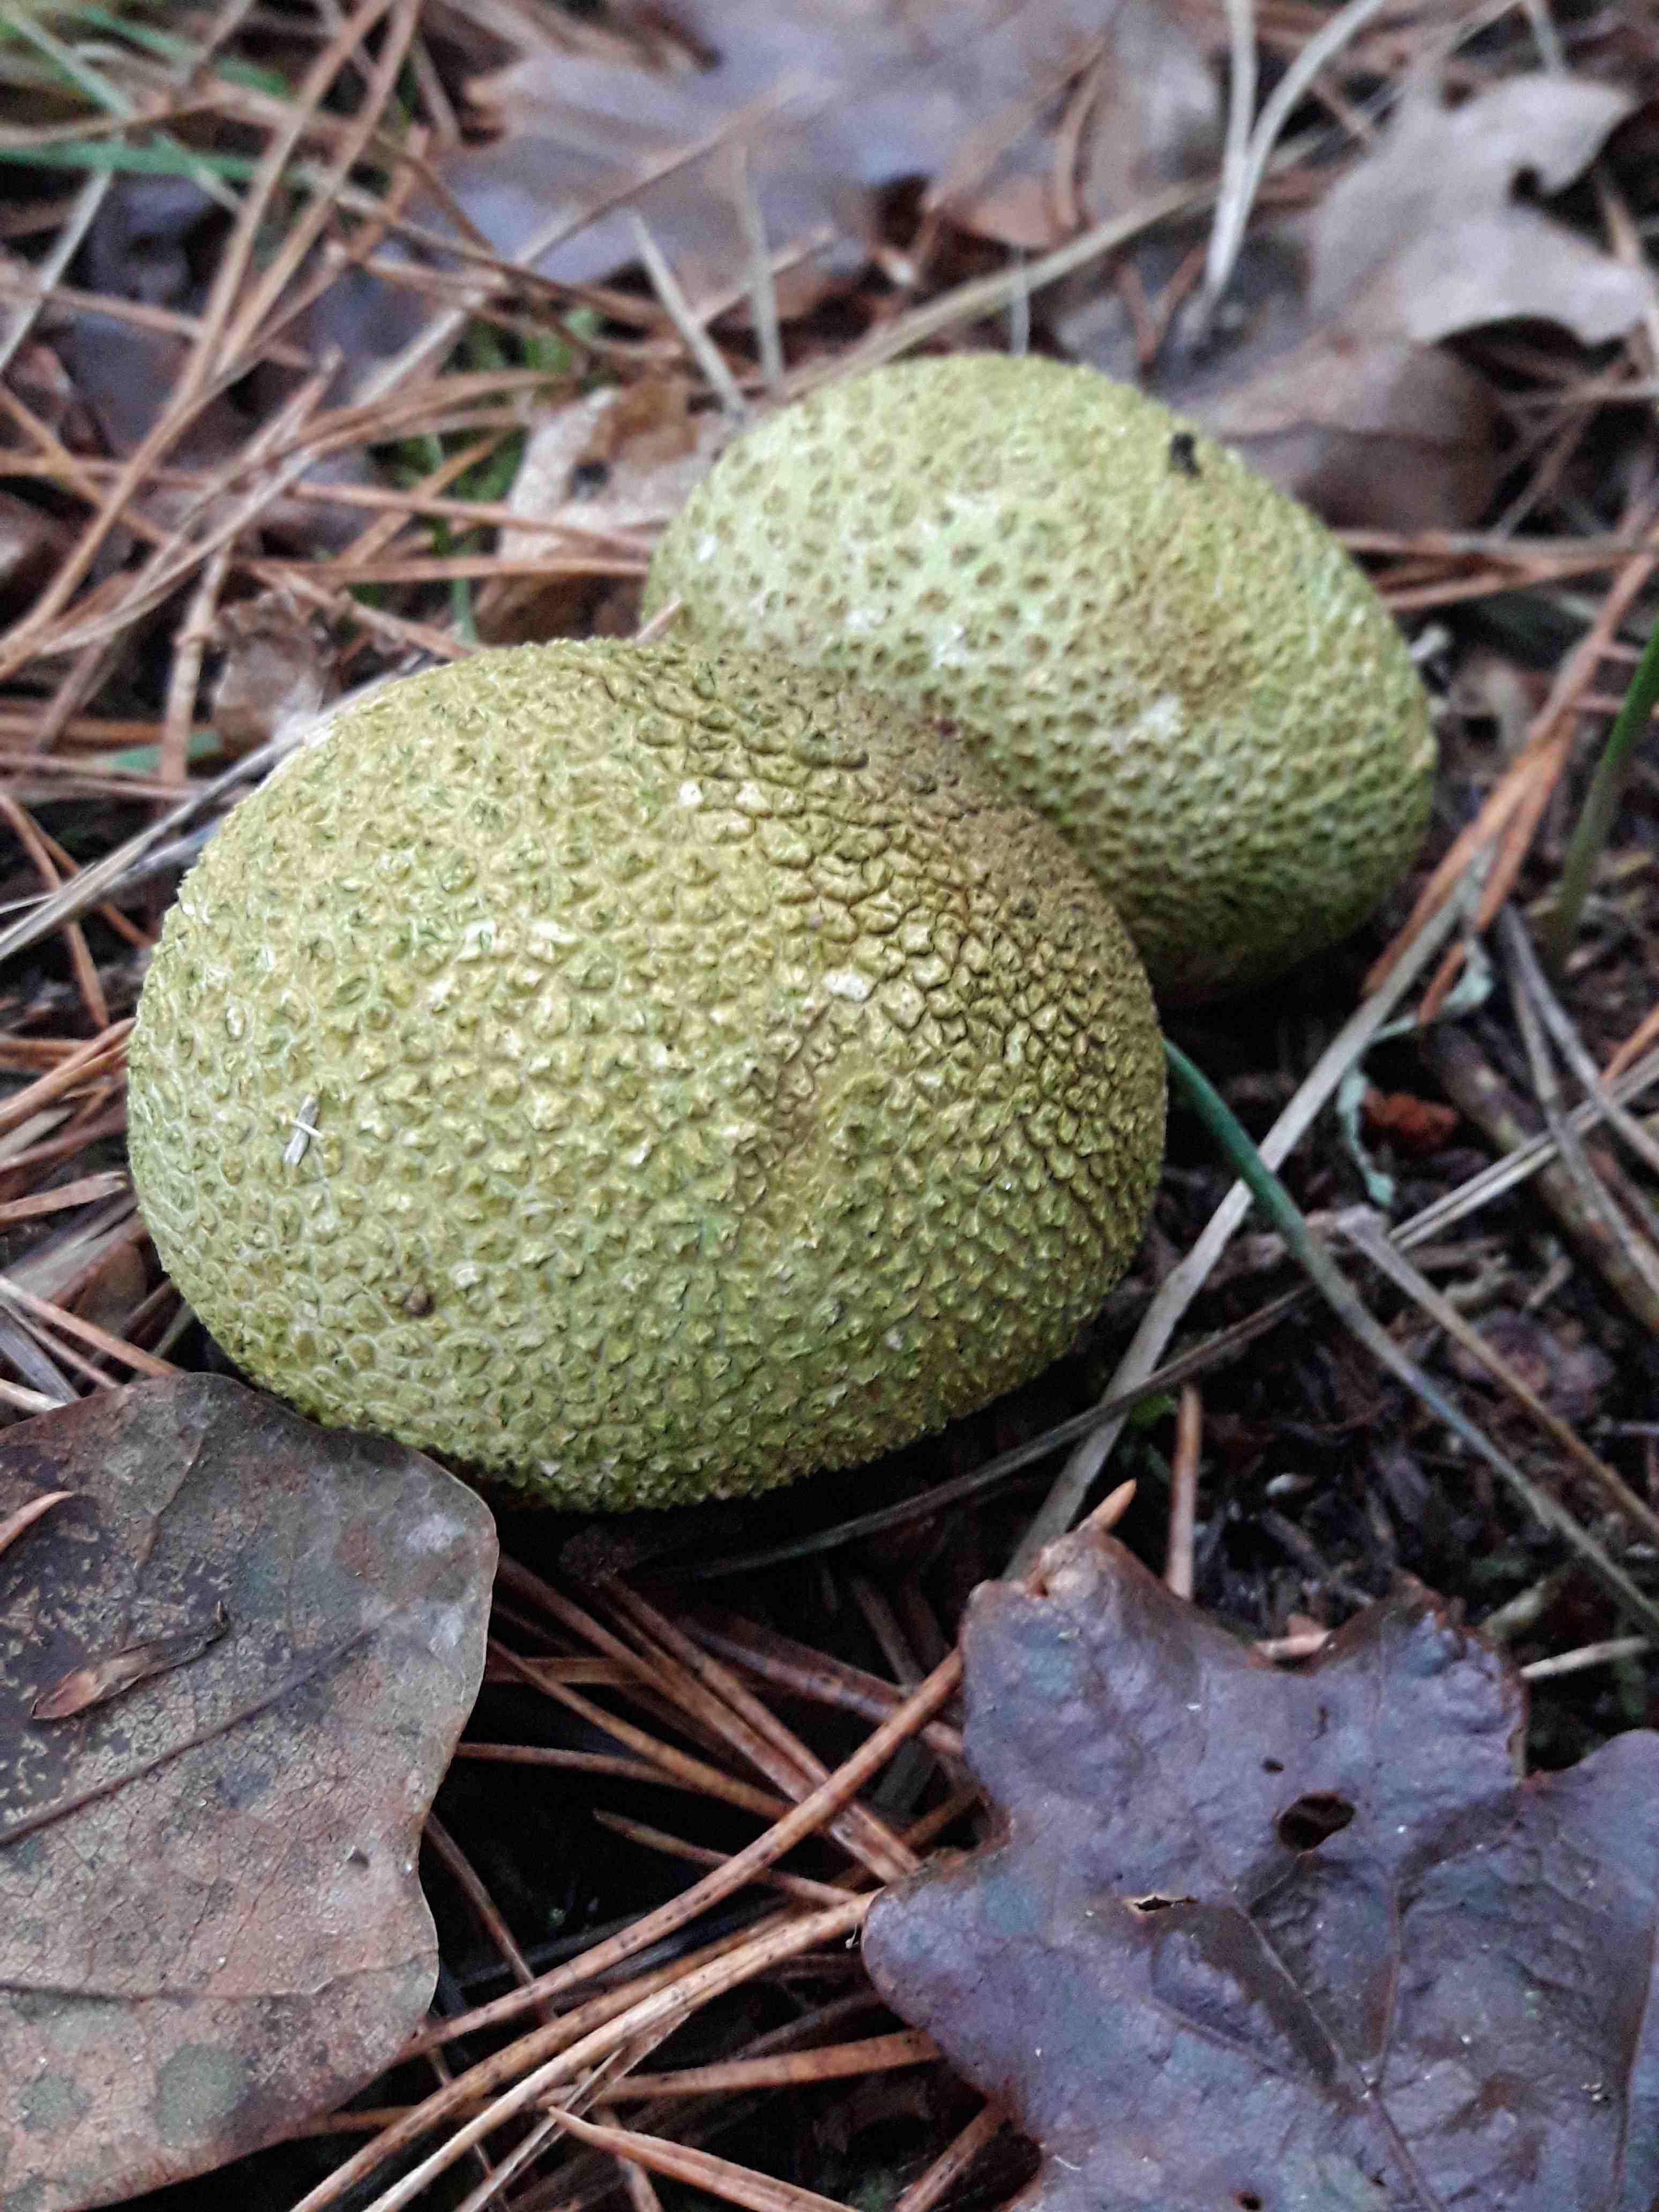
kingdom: Fungi
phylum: Basidiomycota
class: Agaricomycetes
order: Boletales
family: Sclerodermataceae
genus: Scleroderma
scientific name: Scleroderma citrinum
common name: almindelig bruskbold
